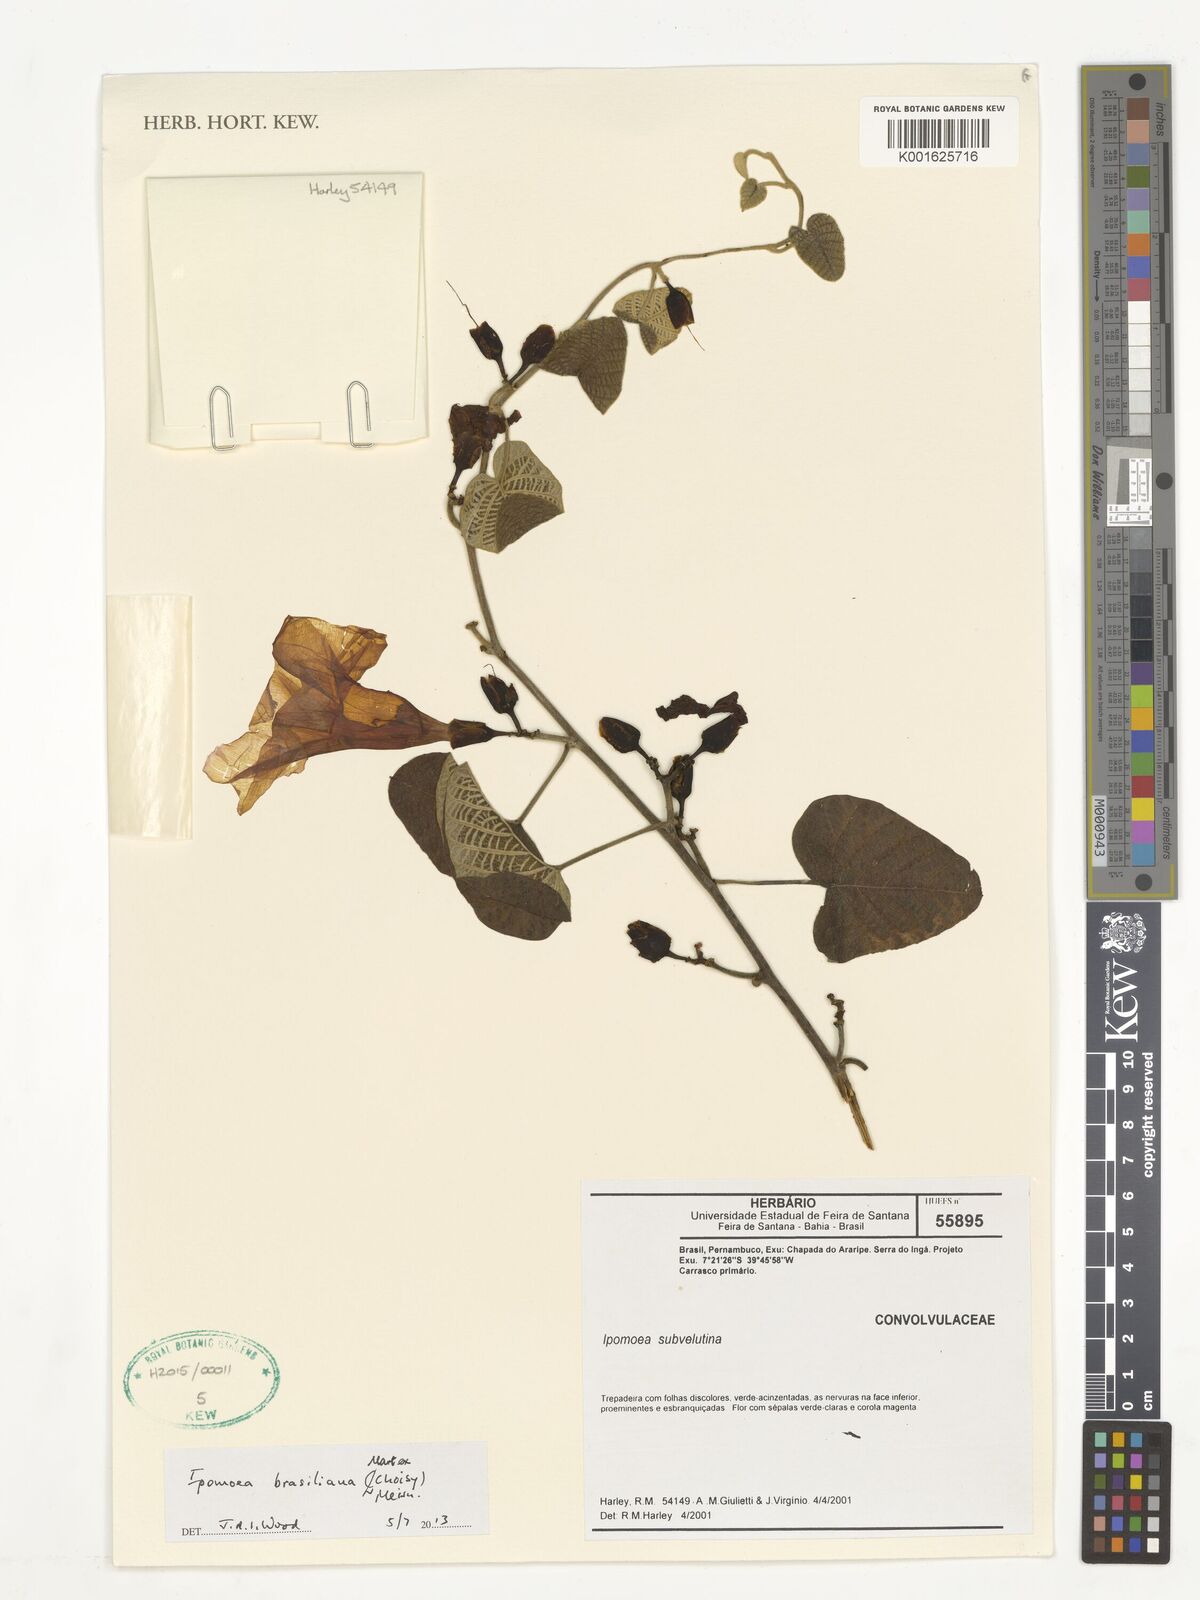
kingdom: Plantae
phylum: Tracheophyta
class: Magnoliopsida
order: Solanales
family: Convolvulaceae
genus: Ipomoea
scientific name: Ipomoea brasiliana
